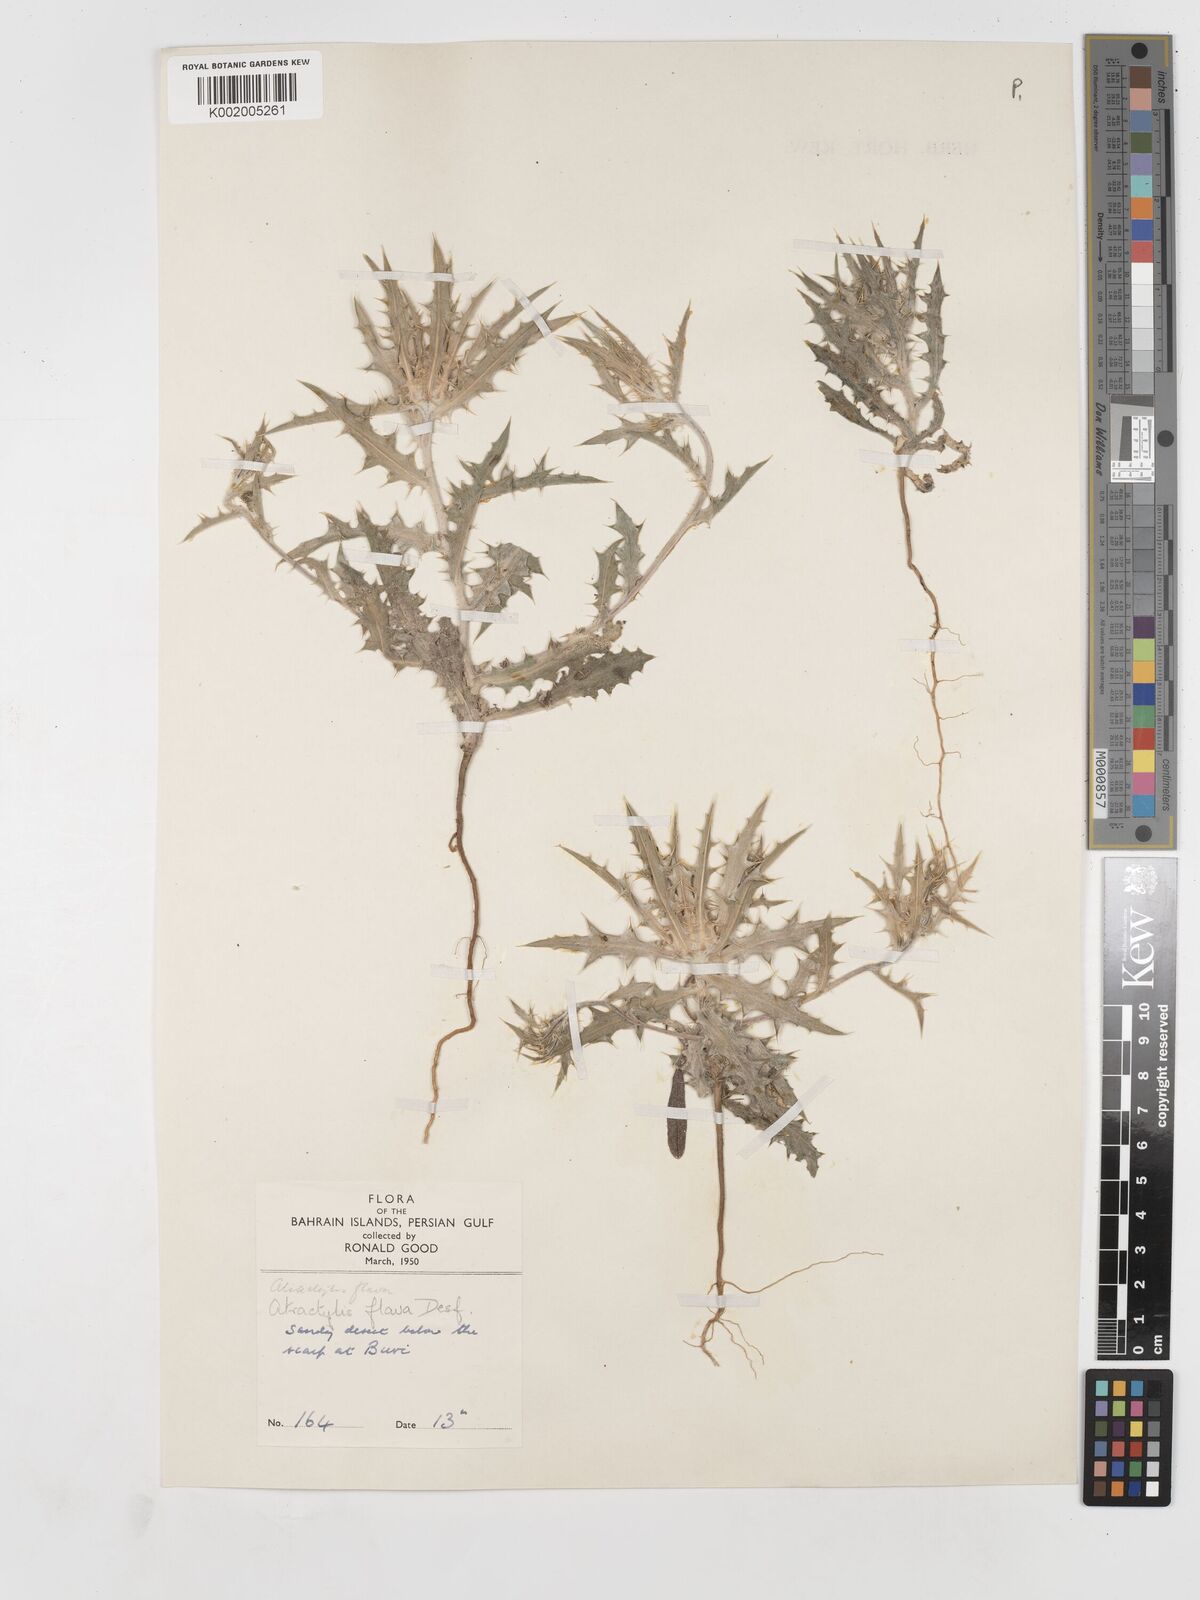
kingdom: Plantae
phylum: Tracheophyta
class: Magnoliopsida
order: Asterales
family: Asteraceae
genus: Atractylis
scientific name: Atractylis carduus
